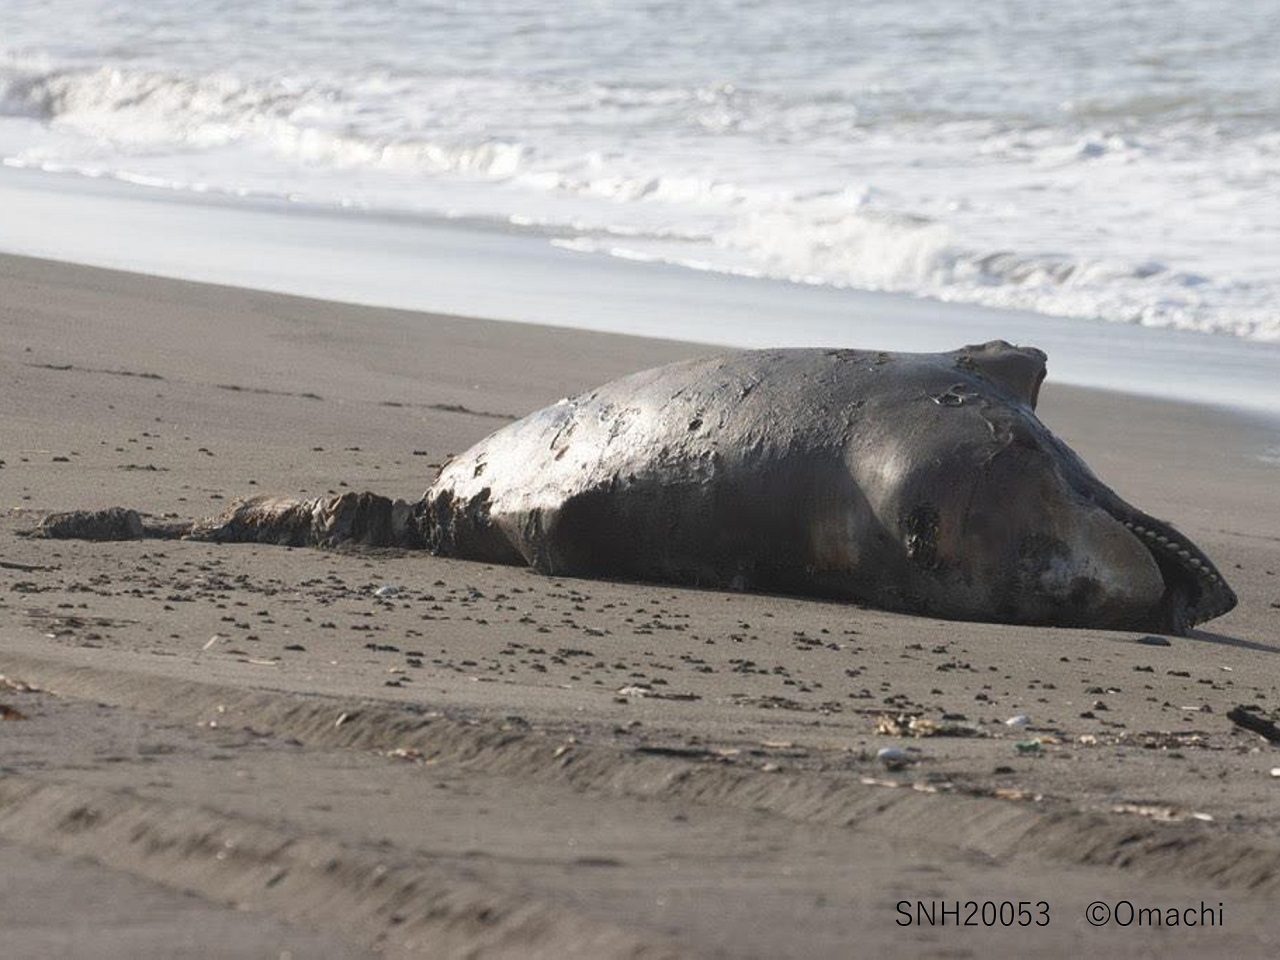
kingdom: Animalia
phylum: Chordata
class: Mammalia
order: Cetacea
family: Delphinidae
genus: Orcinus
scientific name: Orcinus orca
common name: Killer whale
